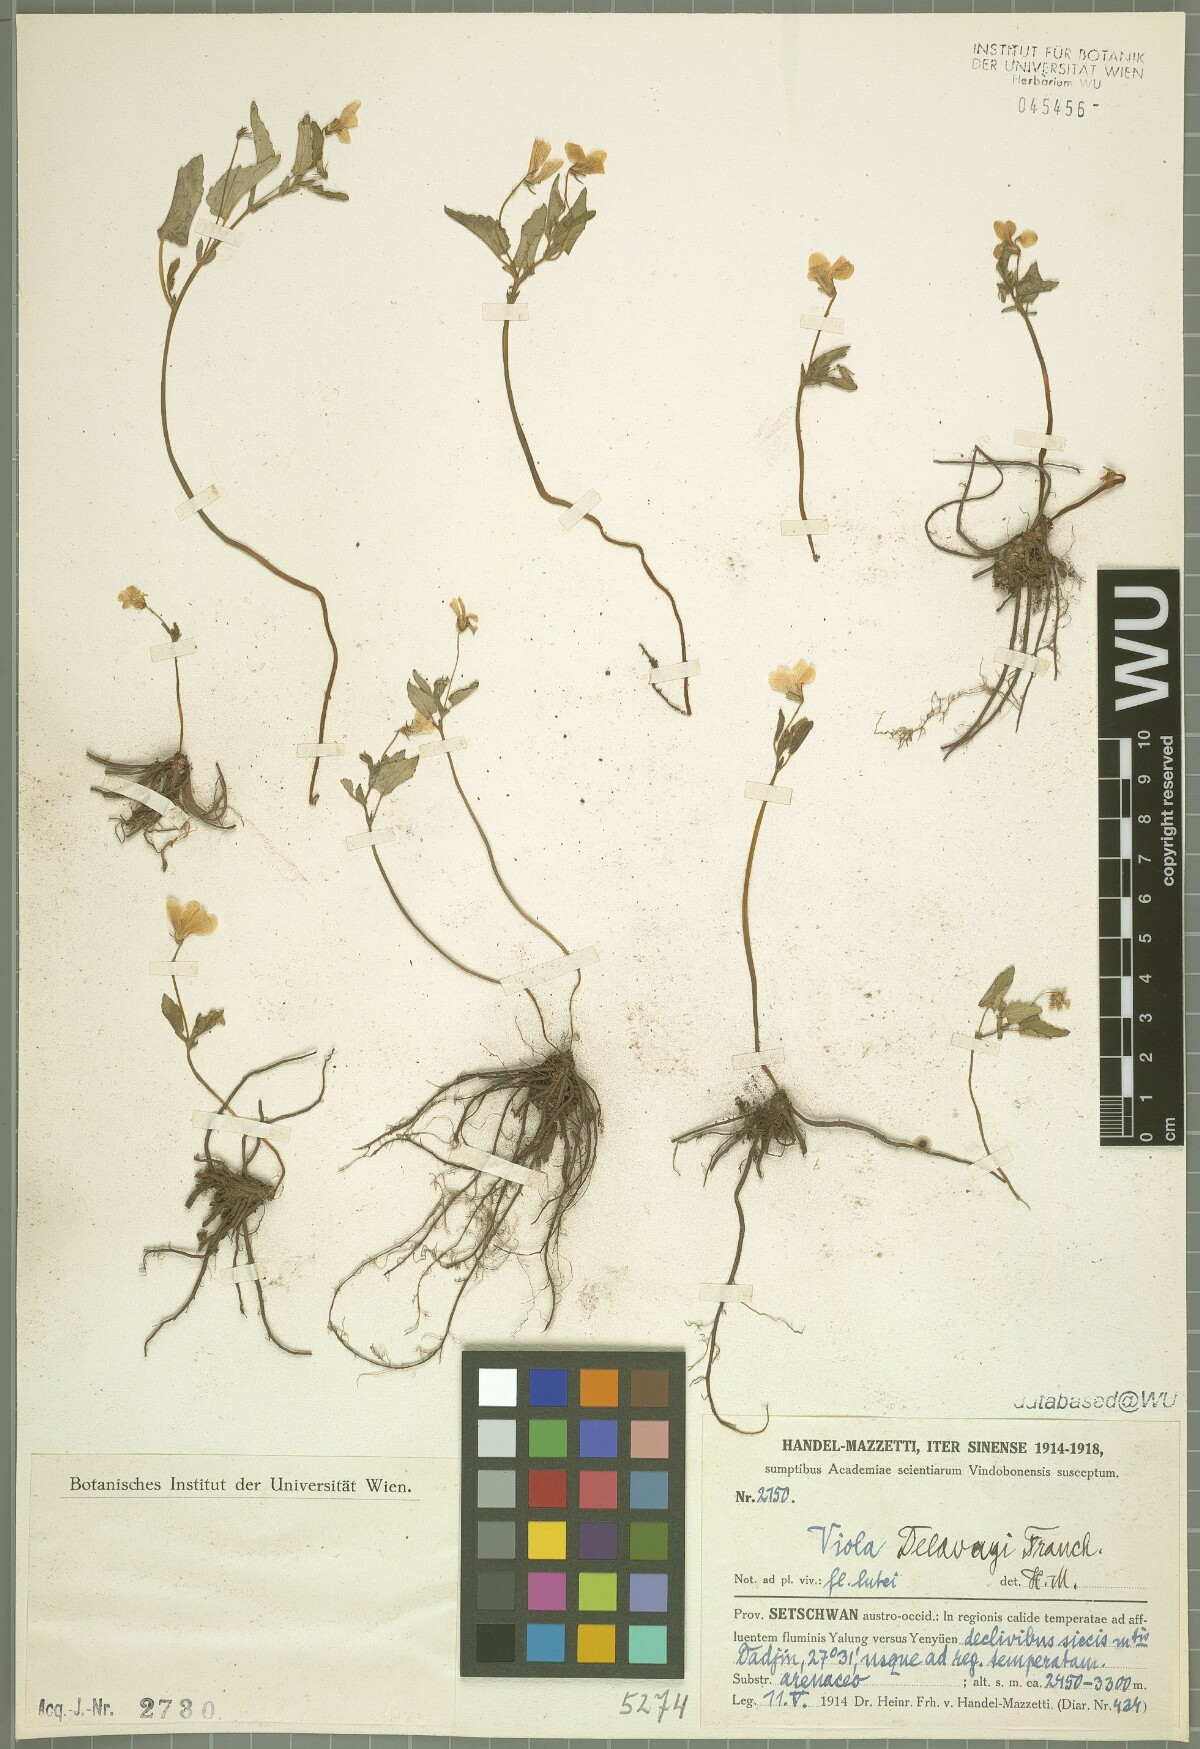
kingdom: Plantae
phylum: Tracheophyta
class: Magnoliopsida
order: Malpighiales
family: Violaceae
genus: Viola
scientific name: Viola delavayi
